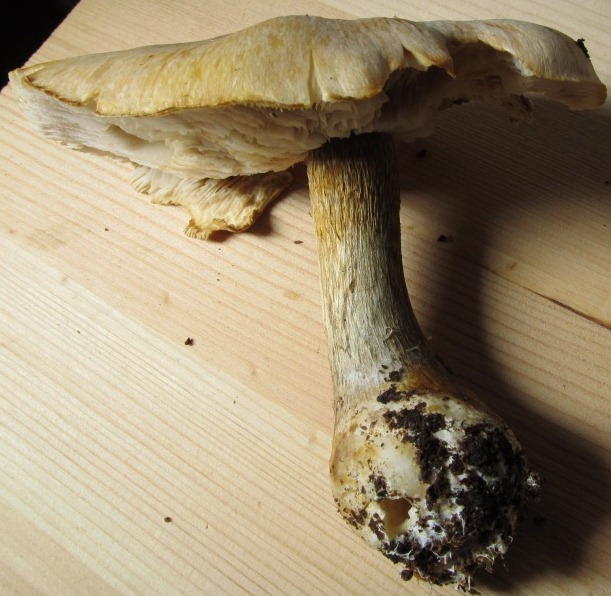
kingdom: Fungi
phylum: Basidiomycota
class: Agaricomycetes
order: Agaricales
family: Cortinariaceae
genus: Thaxterogaster
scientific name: Thaxterogaster talus
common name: knogle-slørhat
